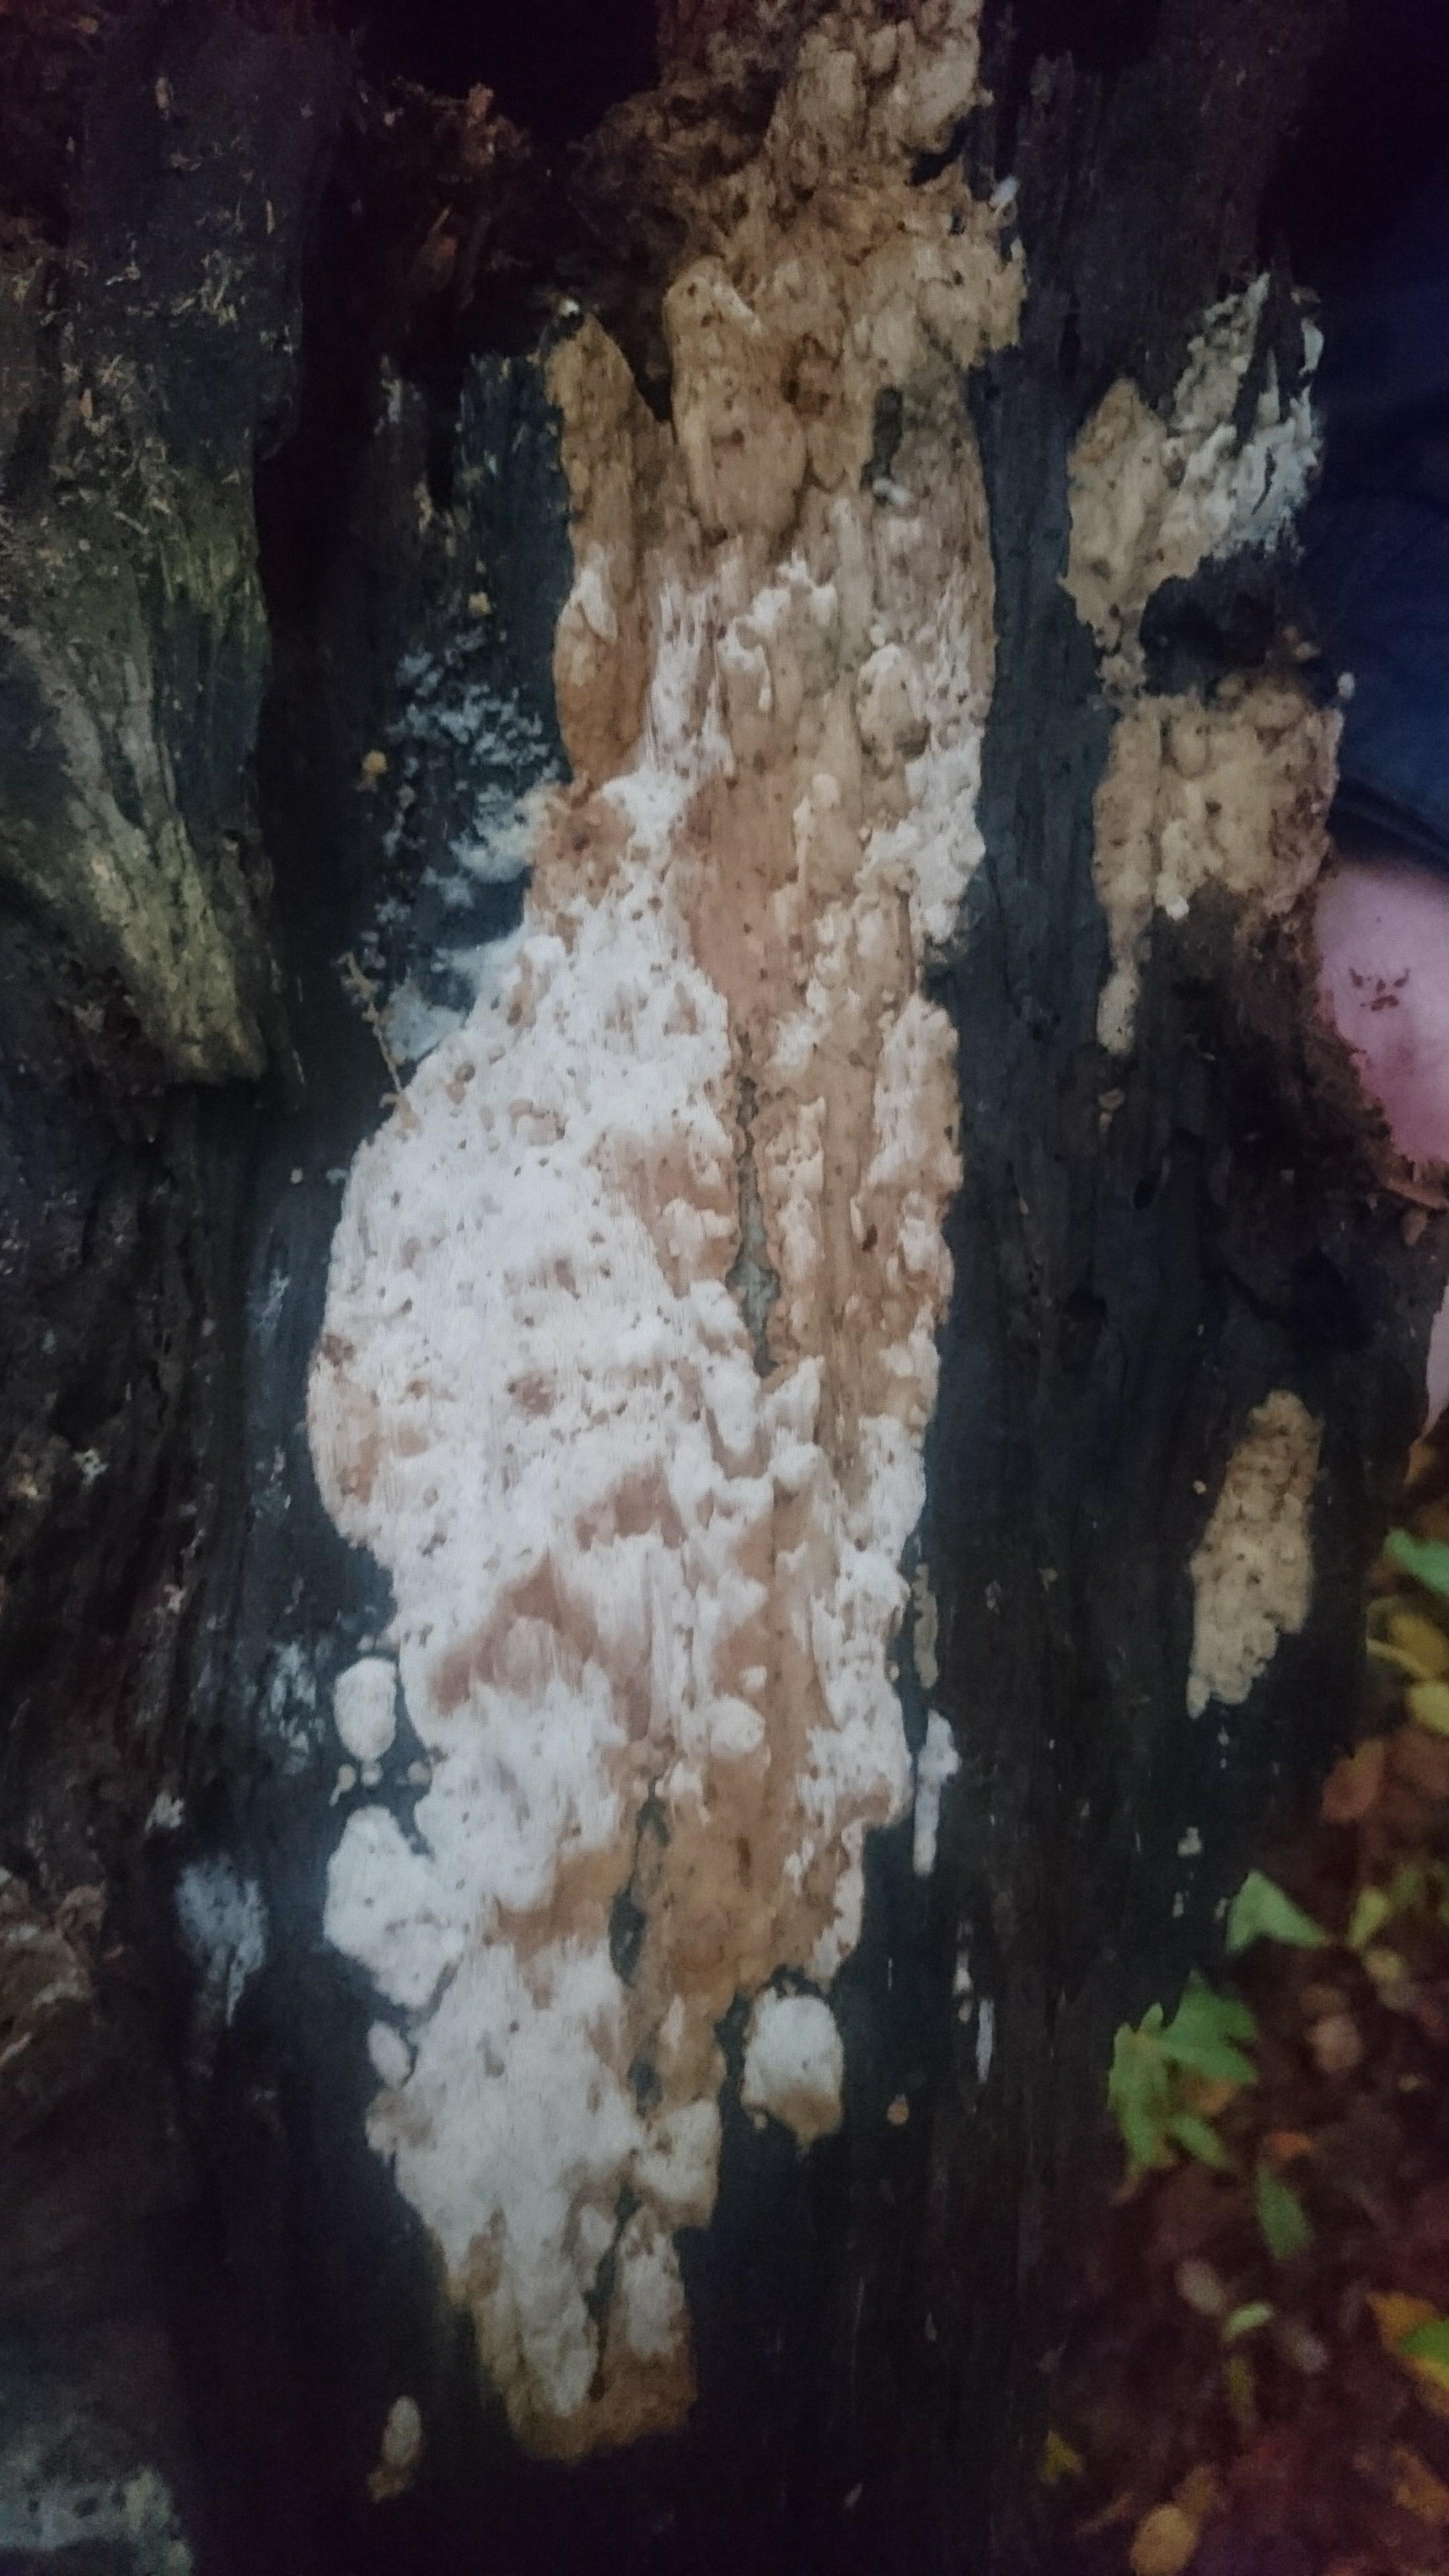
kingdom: Fungi
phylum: Basidiomycota
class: Agaricomycetes
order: Polyporales
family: Meruliaceae
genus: Physisporinus
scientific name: Physisporinus vitreus
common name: mastesvamp
